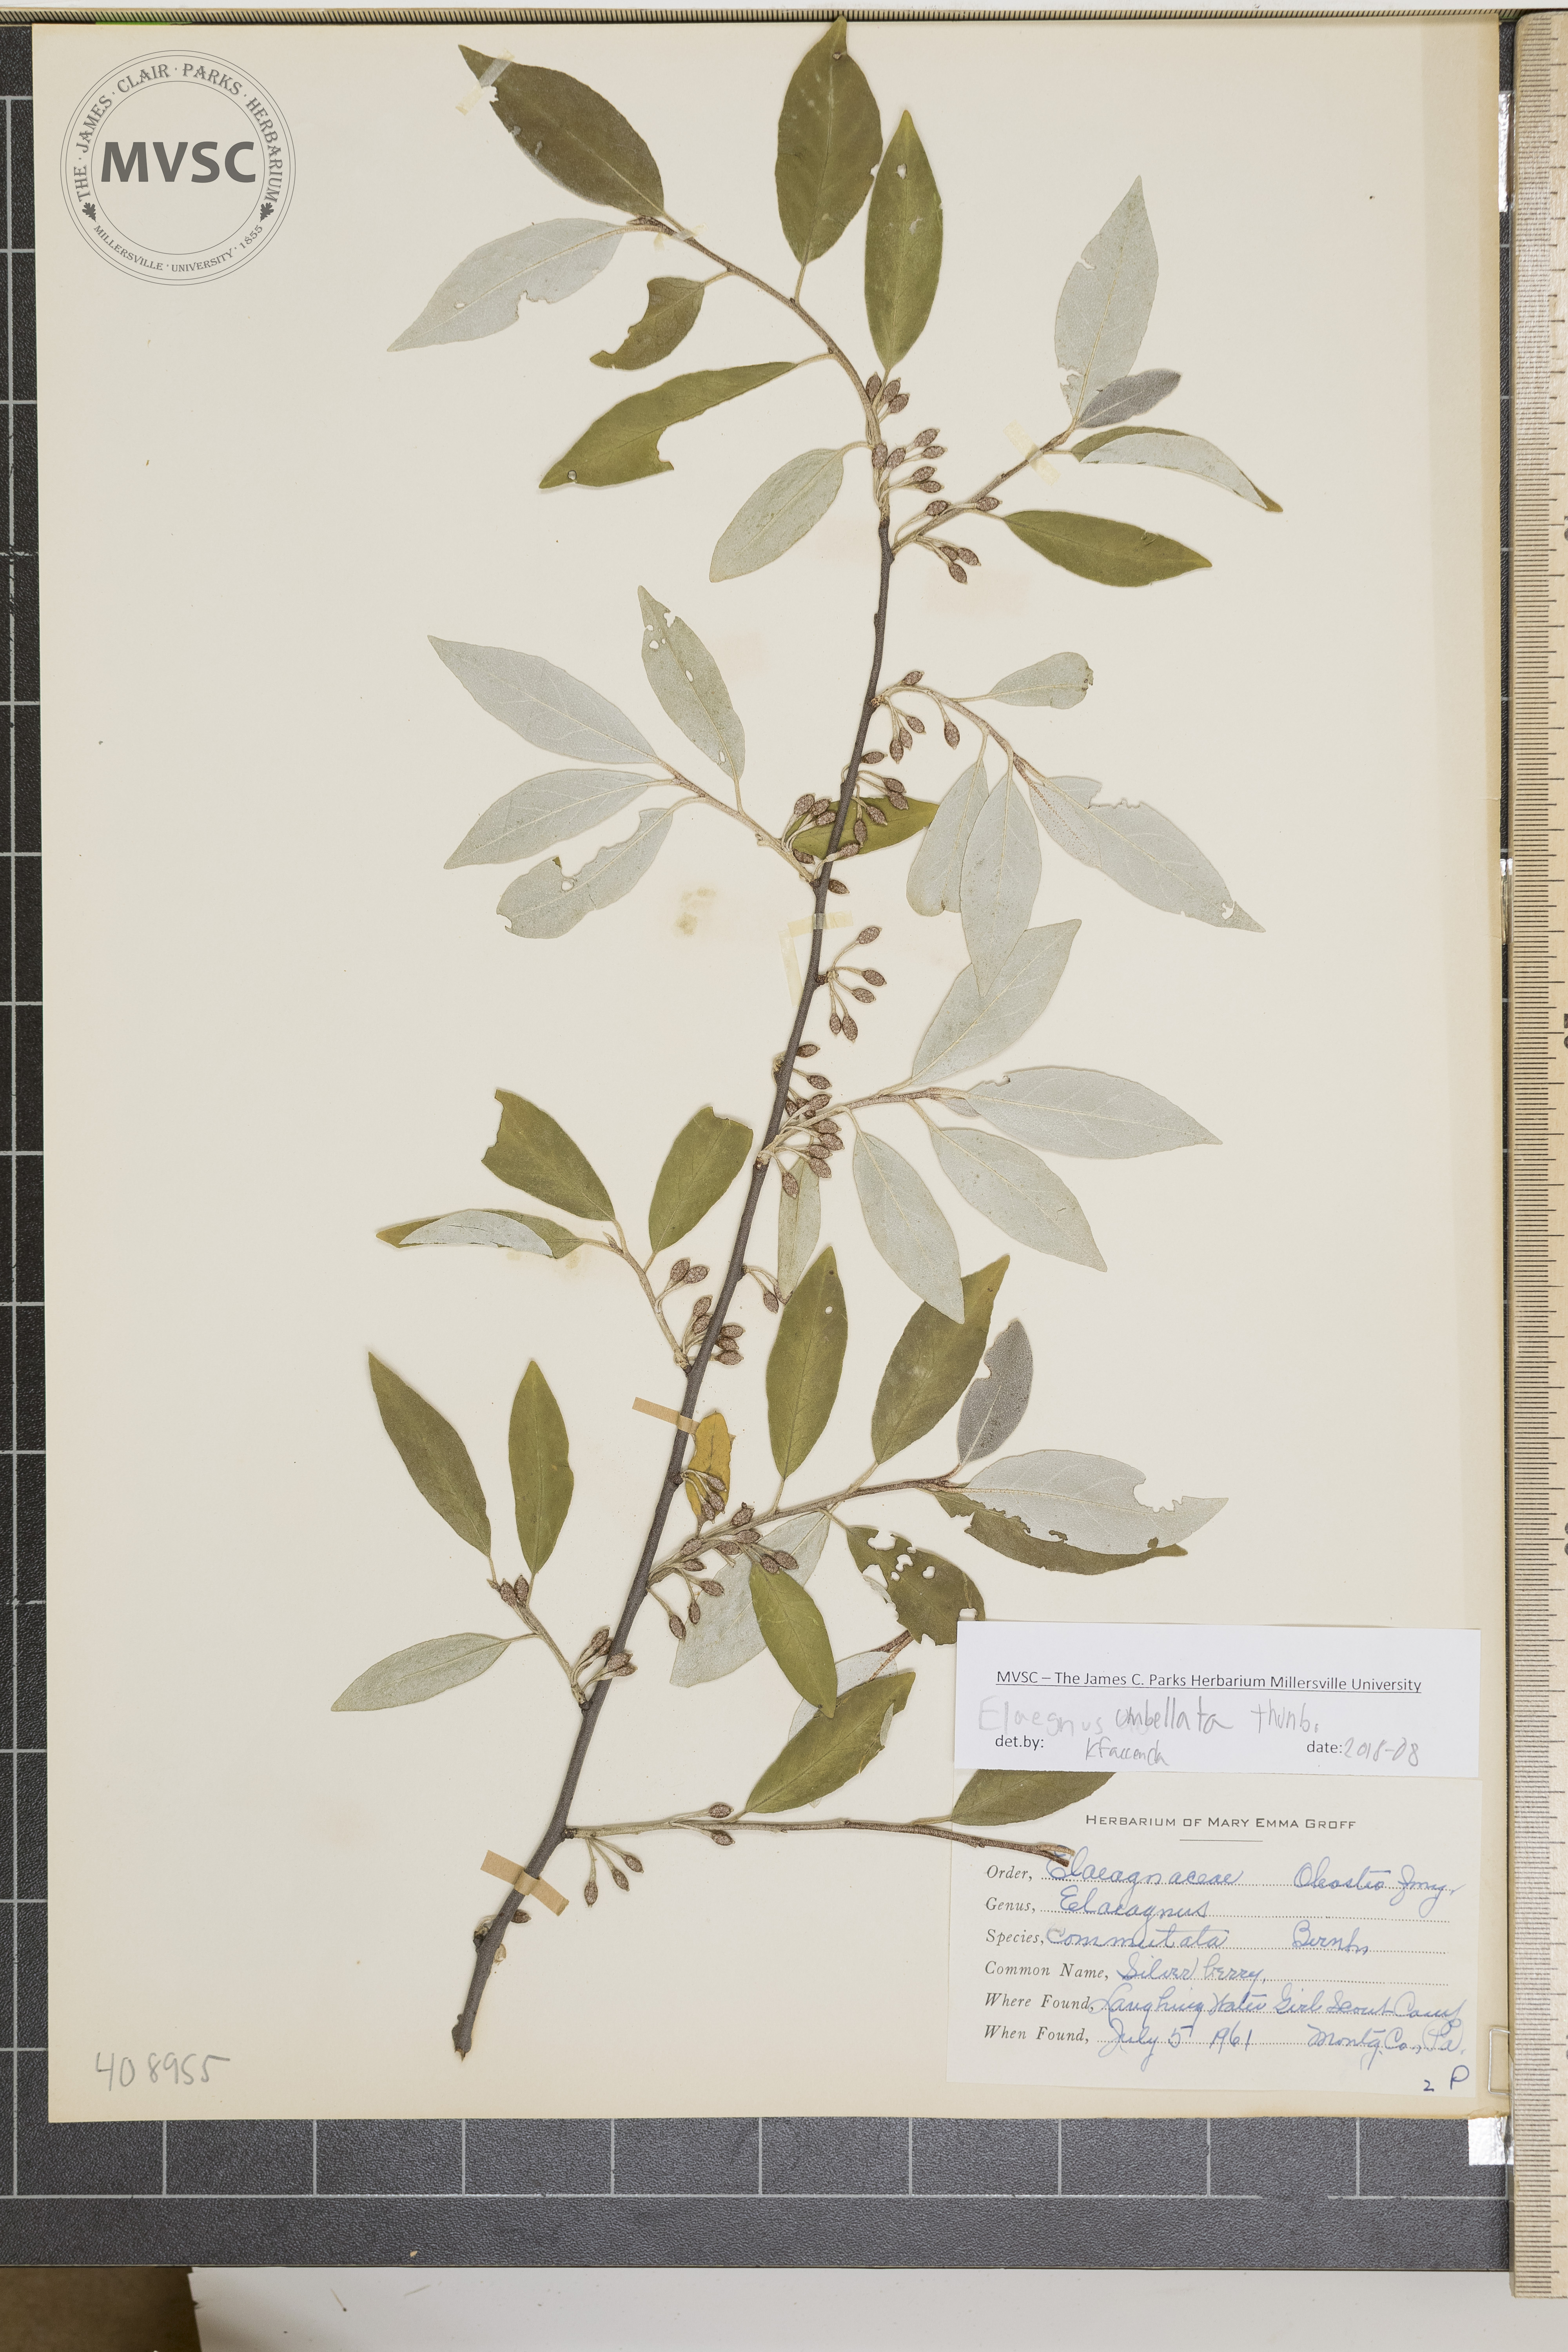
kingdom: Plantae
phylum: Tracheophyta
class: Magnoliopsida
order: Rosales
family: Elaeagnaceae
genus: Elaeagnus
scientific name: Elaeagnus umbellata
